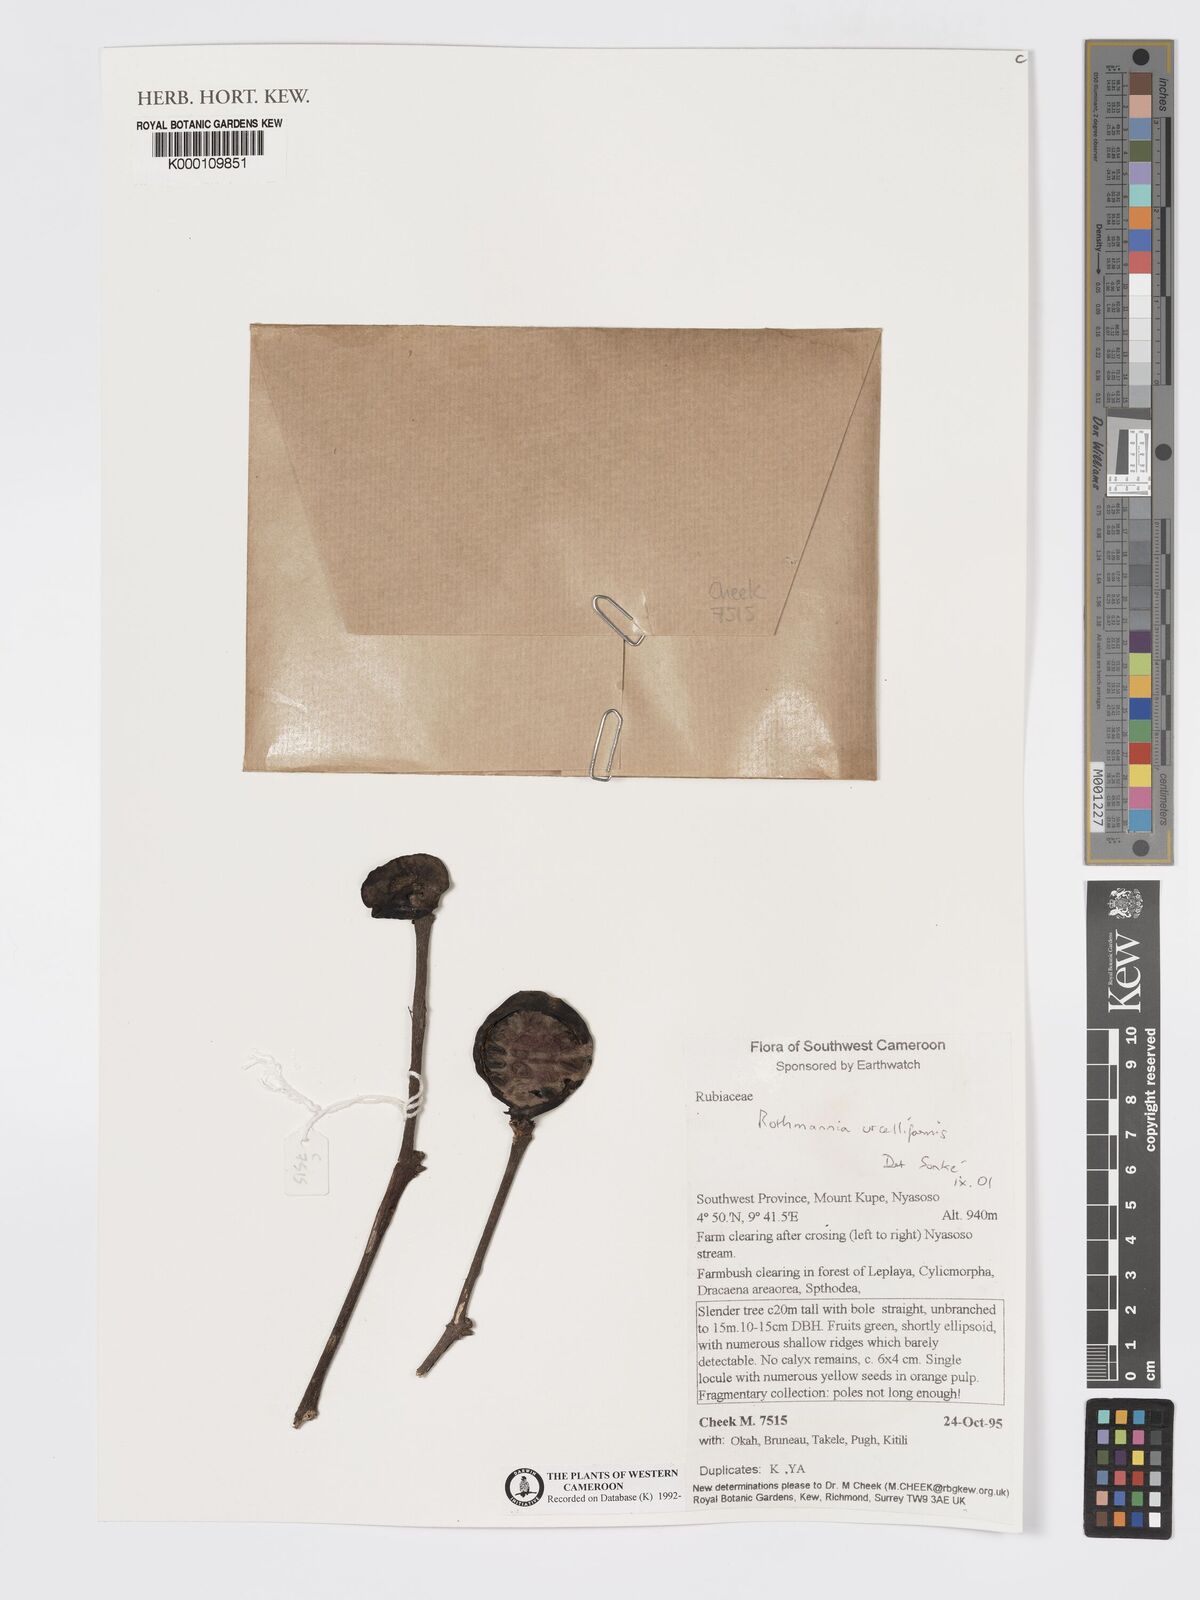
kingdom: Plantae
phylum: Tracheophyta
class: Magnoliopsida
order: Gentianales
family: Rubiaceae
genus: Rothmannia
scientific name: Rothmannia urcelliformis
